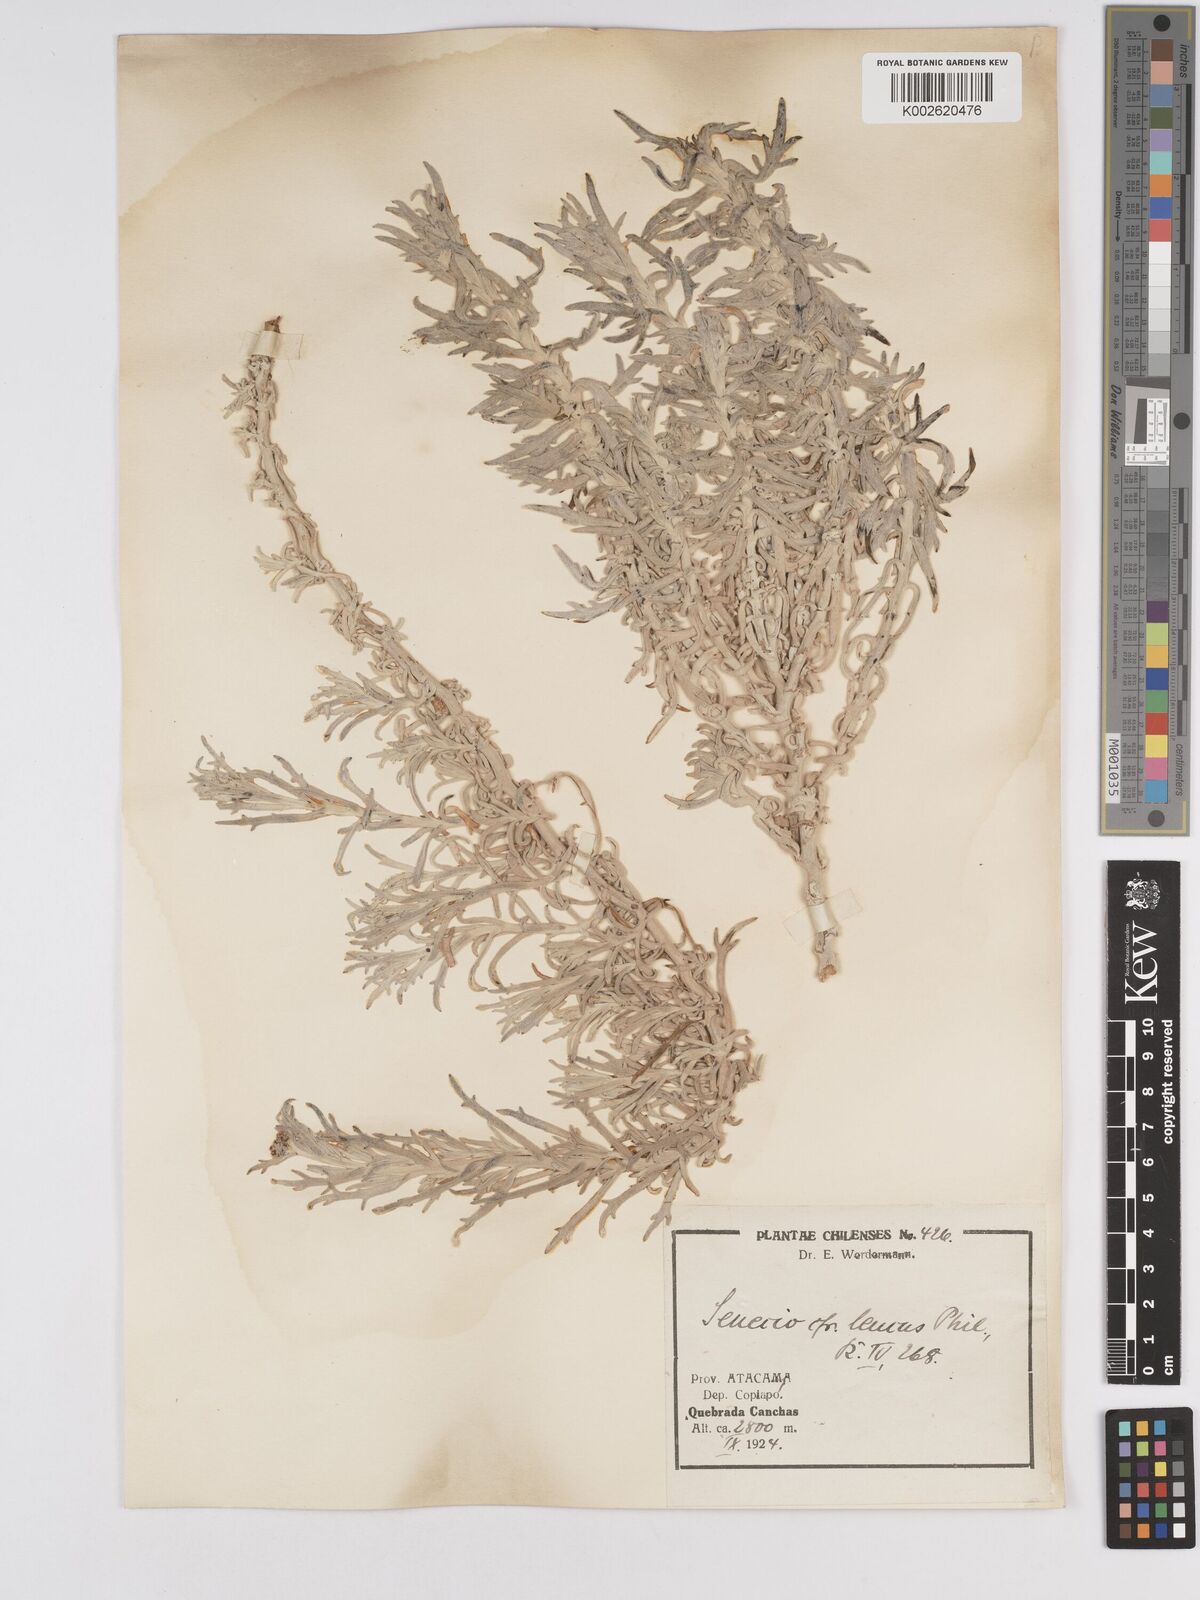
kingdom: Plantae
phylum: Tracheophyta
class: Magnoliopsida
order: Asterales
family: Asteraceae
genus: Senecio
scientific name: Senecio leucus
